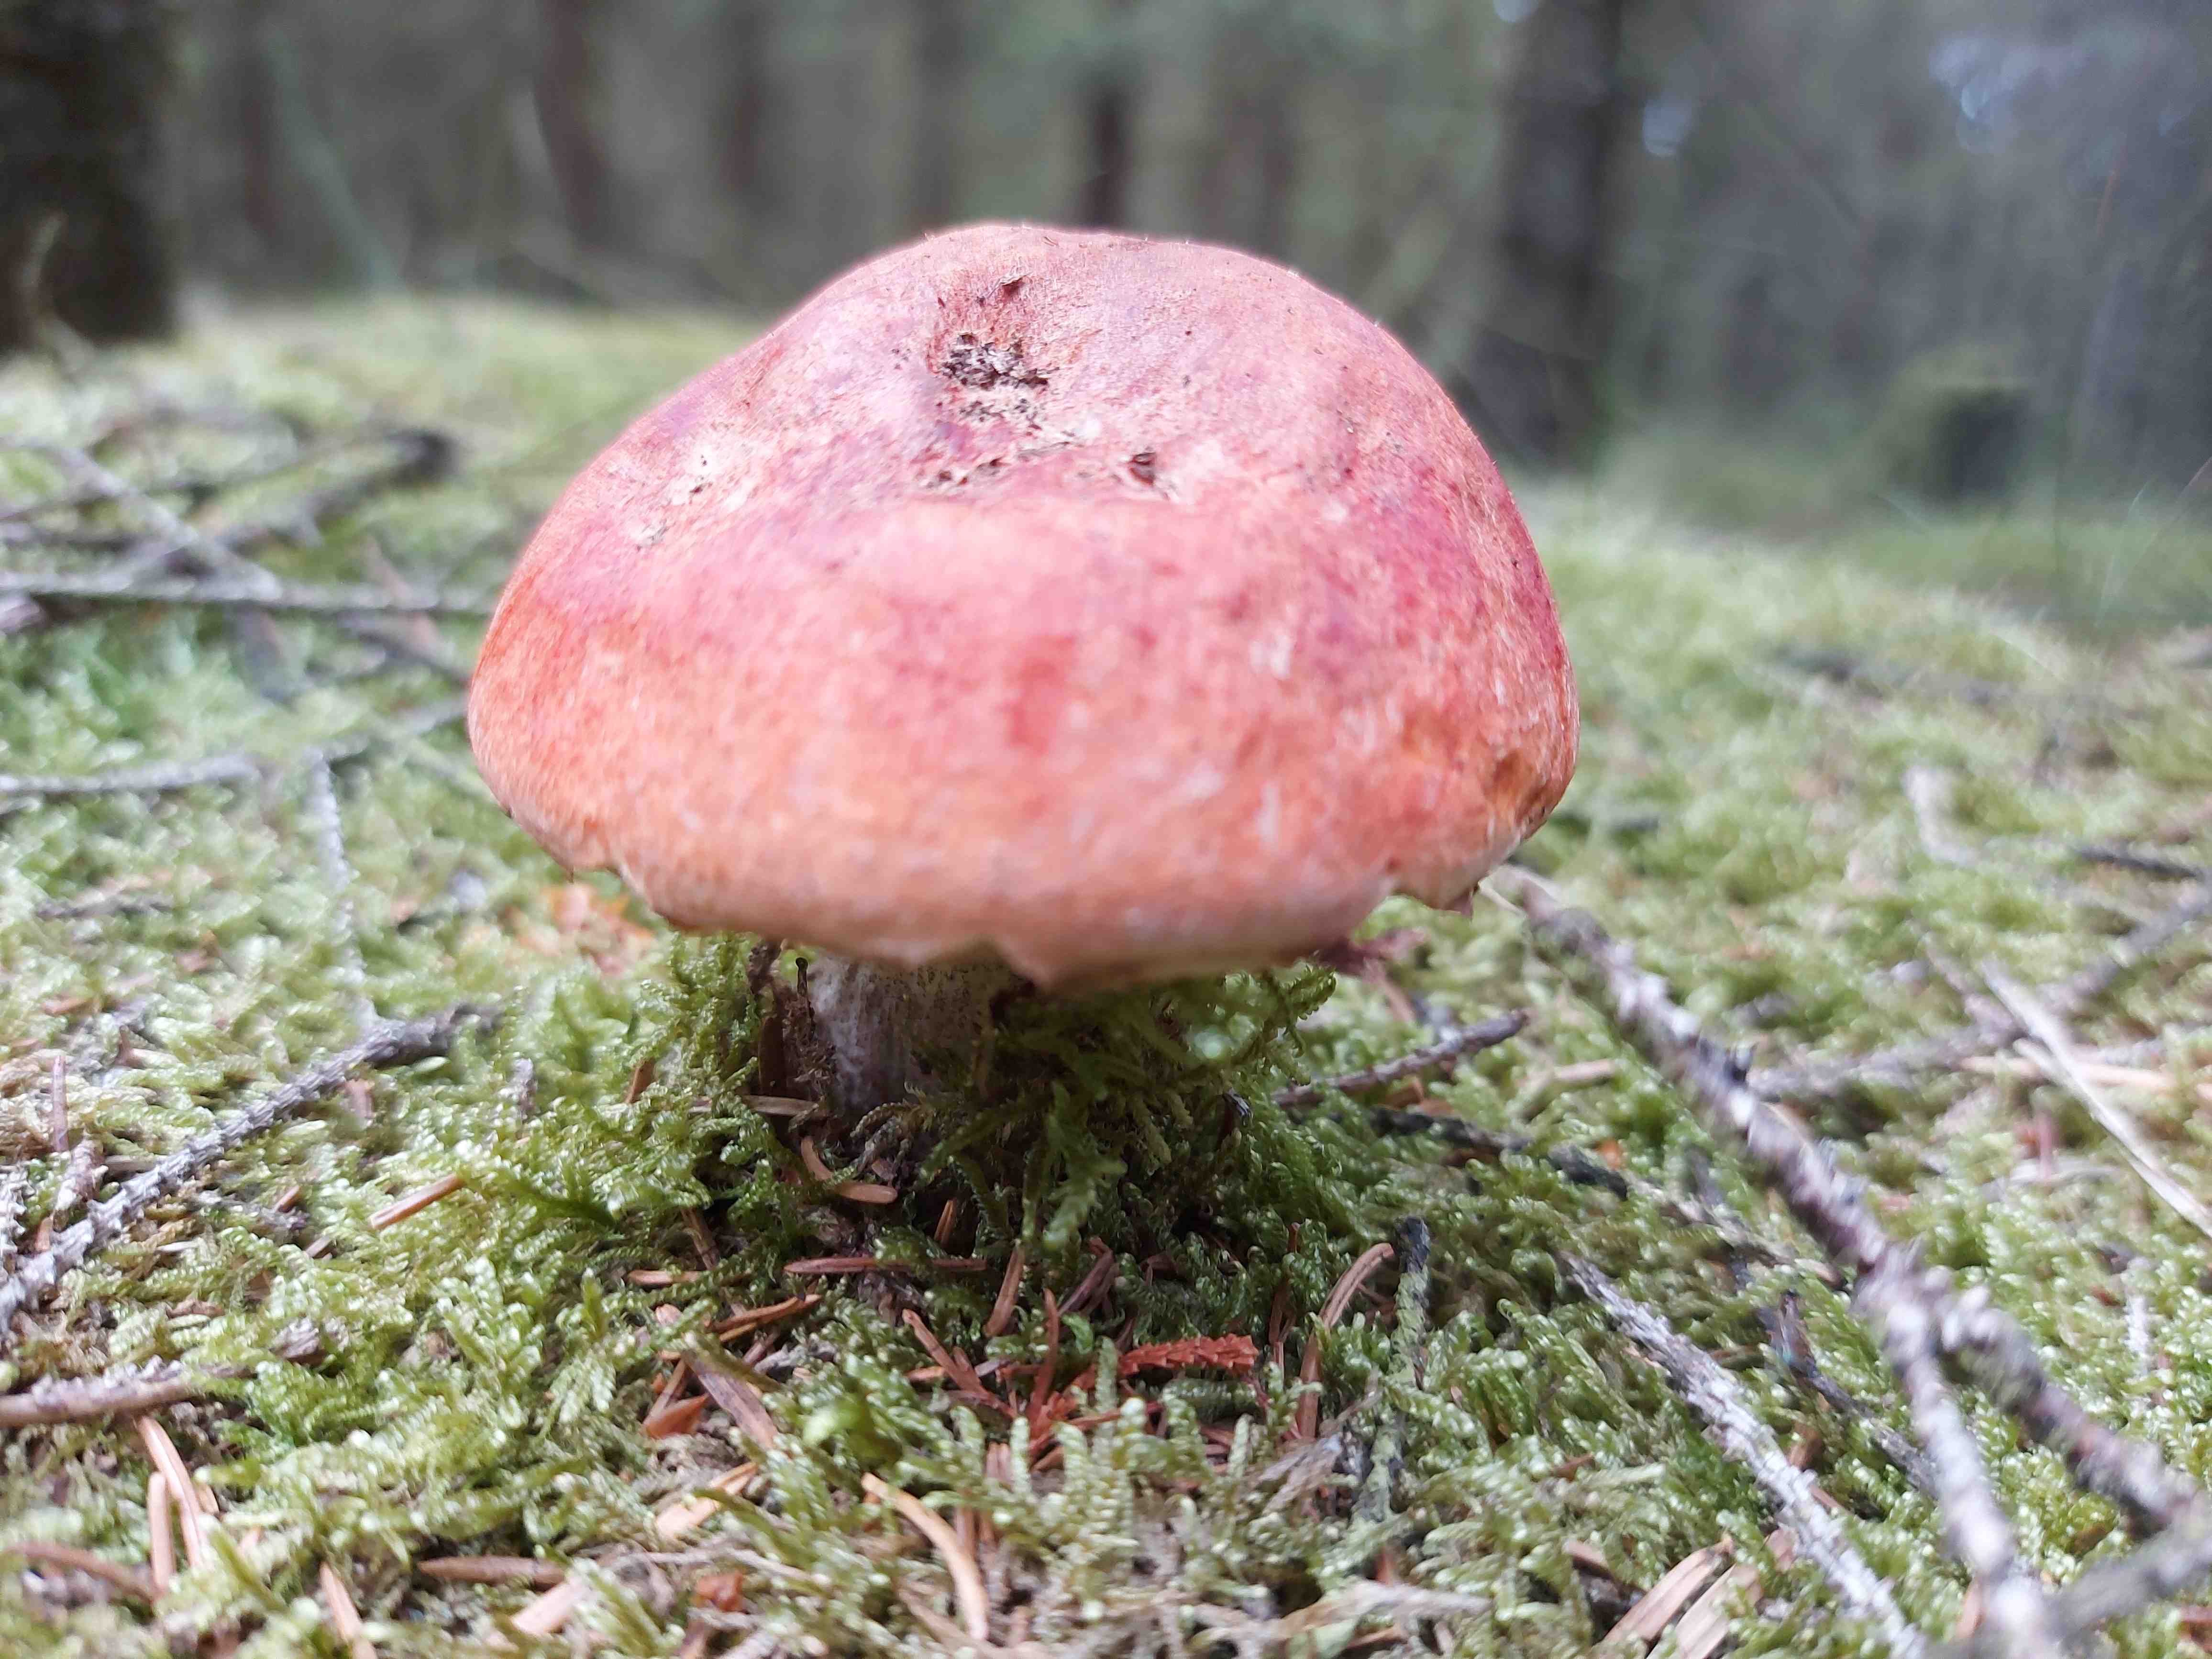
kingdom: Fungi
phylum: Basidiomycota
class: Agaricomycetes
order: Boletales
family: Boletaceae
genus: Leccinum
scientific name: Leccinum vulpinum
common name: fyrre-skælrørhat
